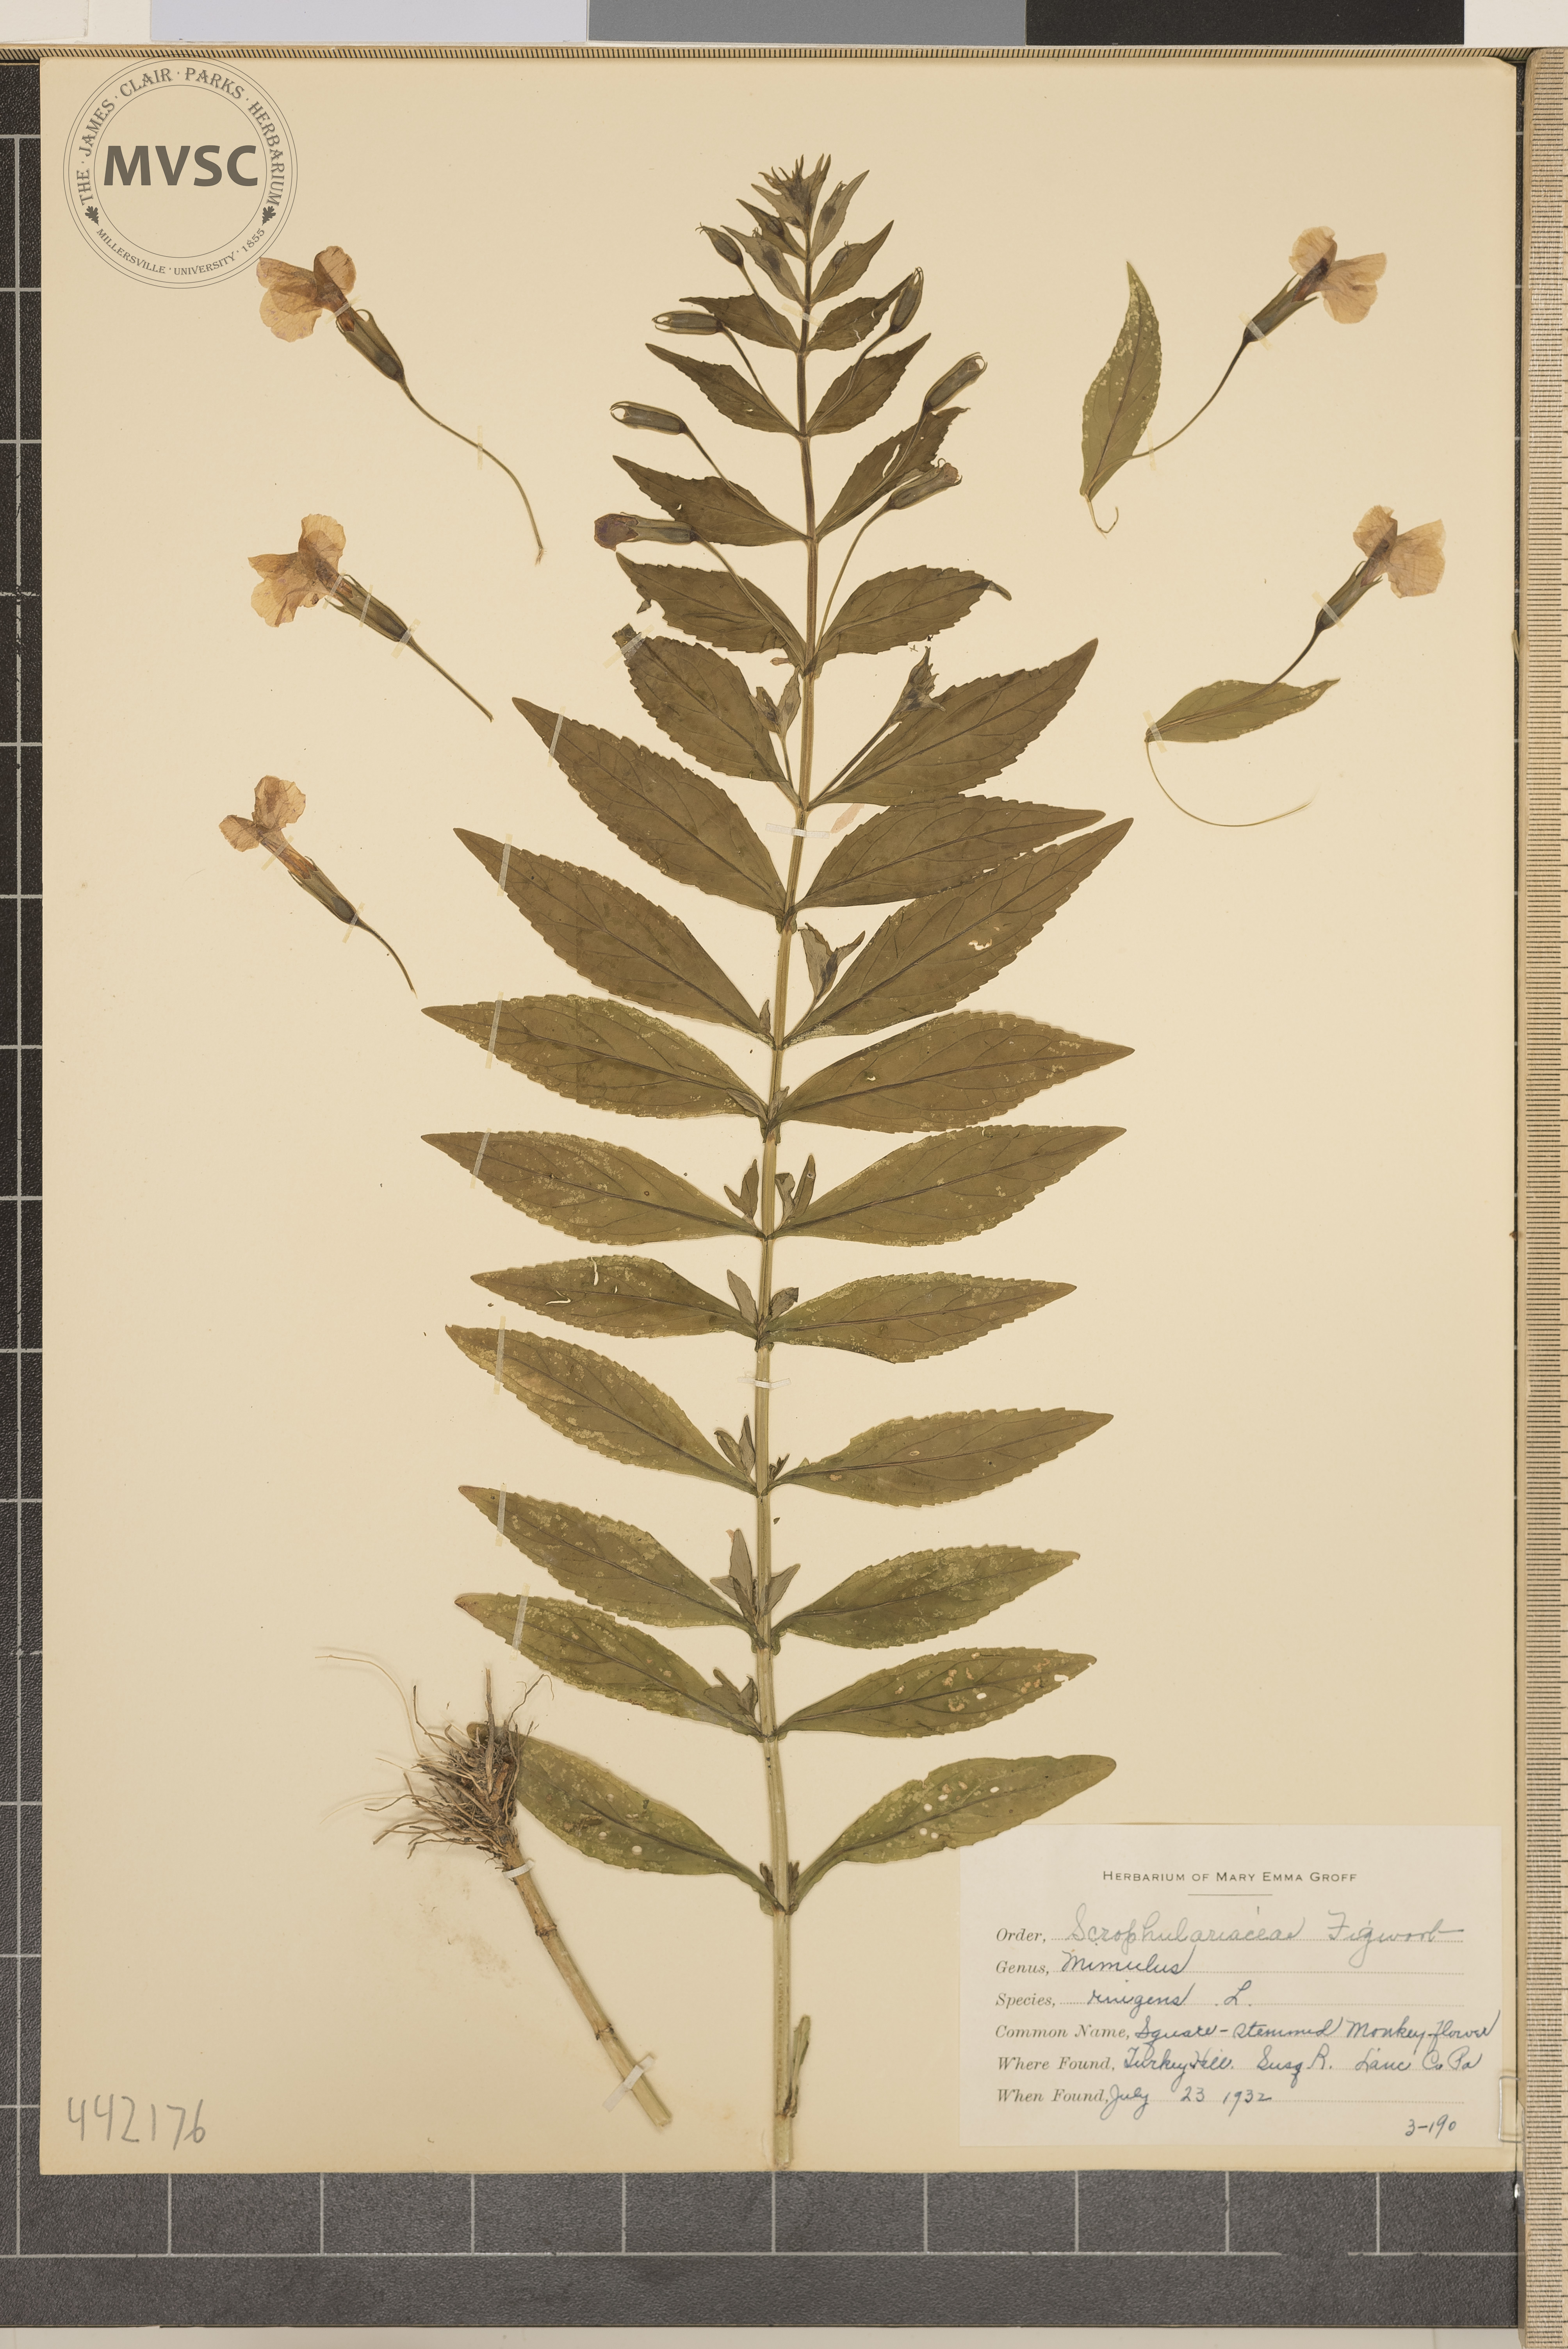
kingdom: Plantae
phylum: Tracheophyta
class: Magnoliopsida
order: Lamiales
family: Phrymaceae
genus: Mimulus
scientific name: Mimulus ringens
